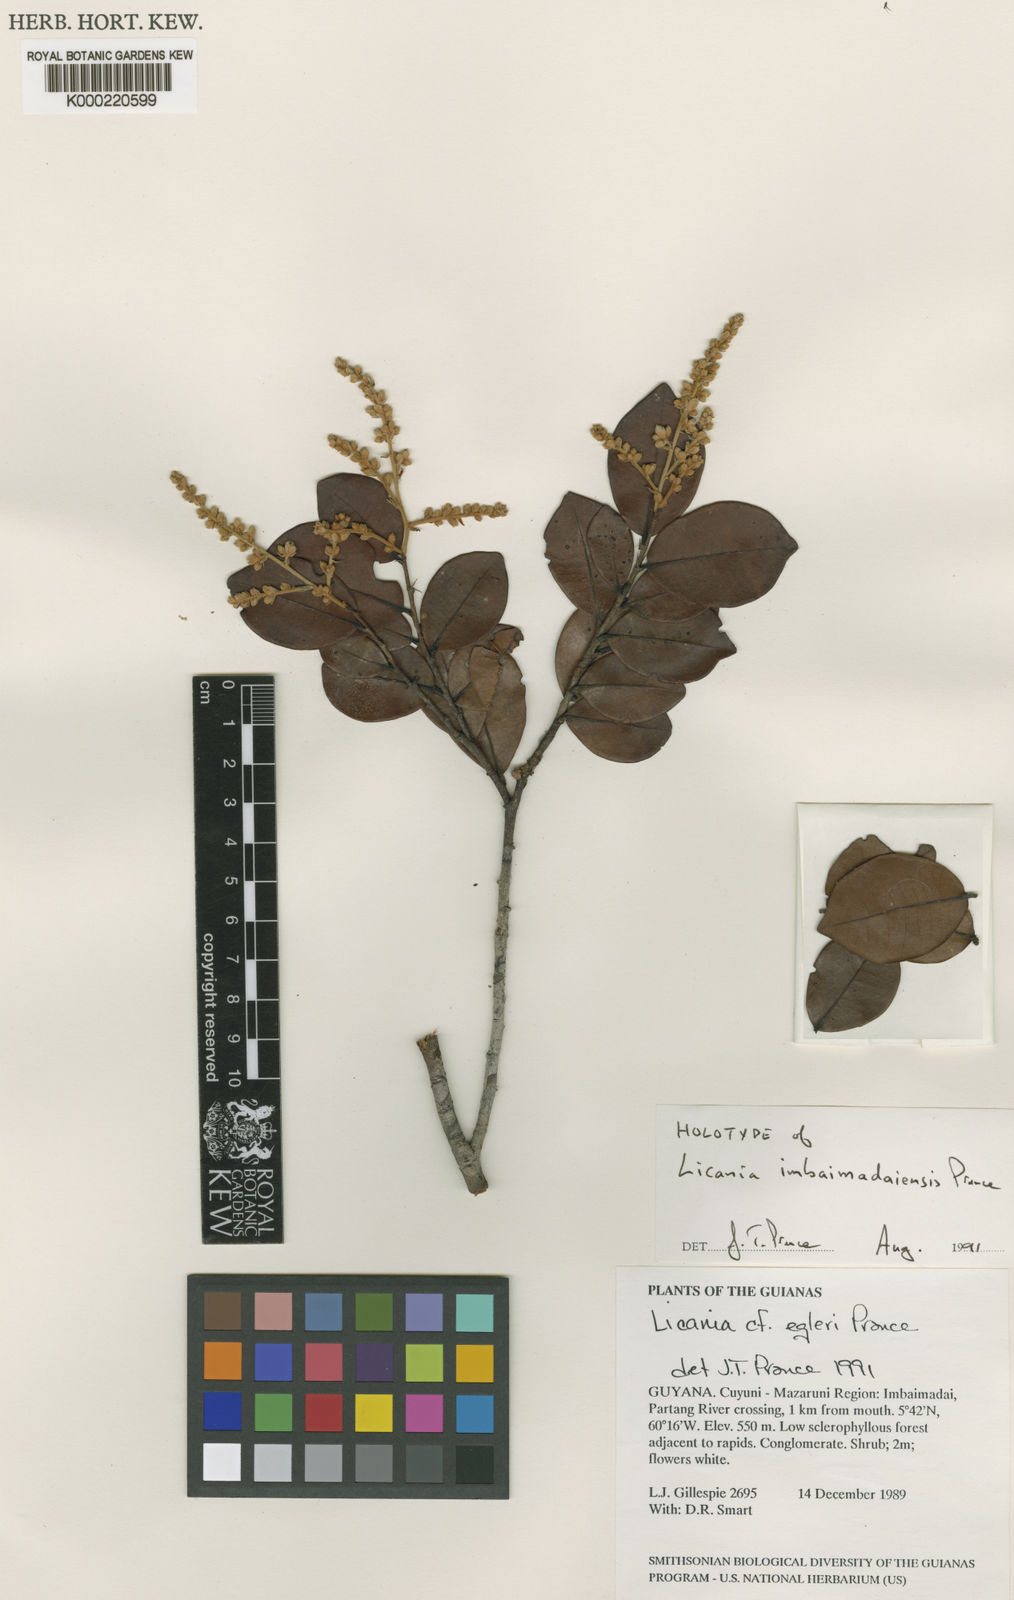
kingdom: Plantae
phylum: Tracheophyta
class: Magnoliopsida
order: Malpighiales
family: Chrysobalanaceae
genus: Moquilea
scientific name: Moquilea imbaimadaiensis
